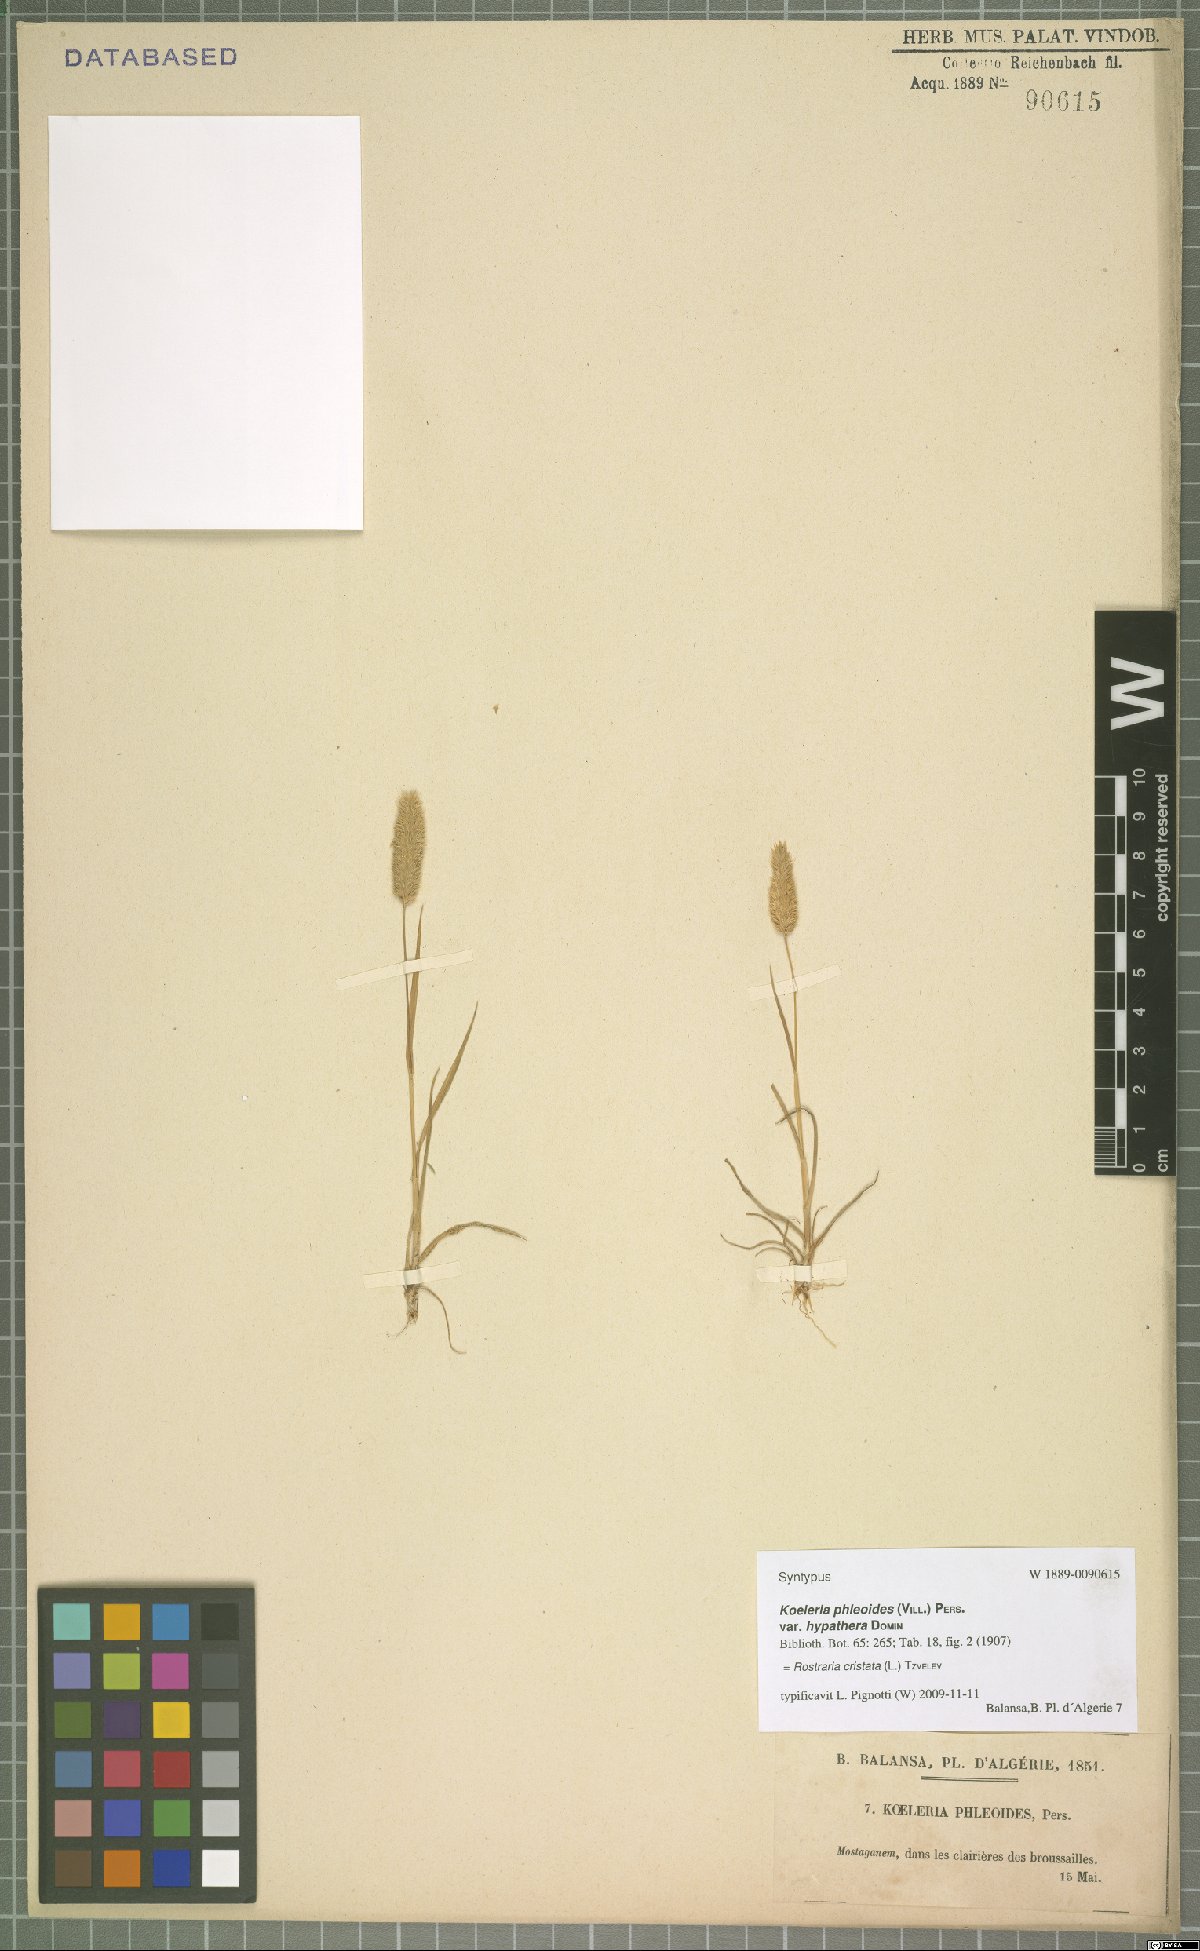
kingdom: Plantae
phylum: Tracheophyta
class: Liliopsida
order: Poales
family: Poaceae
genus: Rostraria
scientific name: Rostraria cristata
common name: Mediterranean hair-grass
